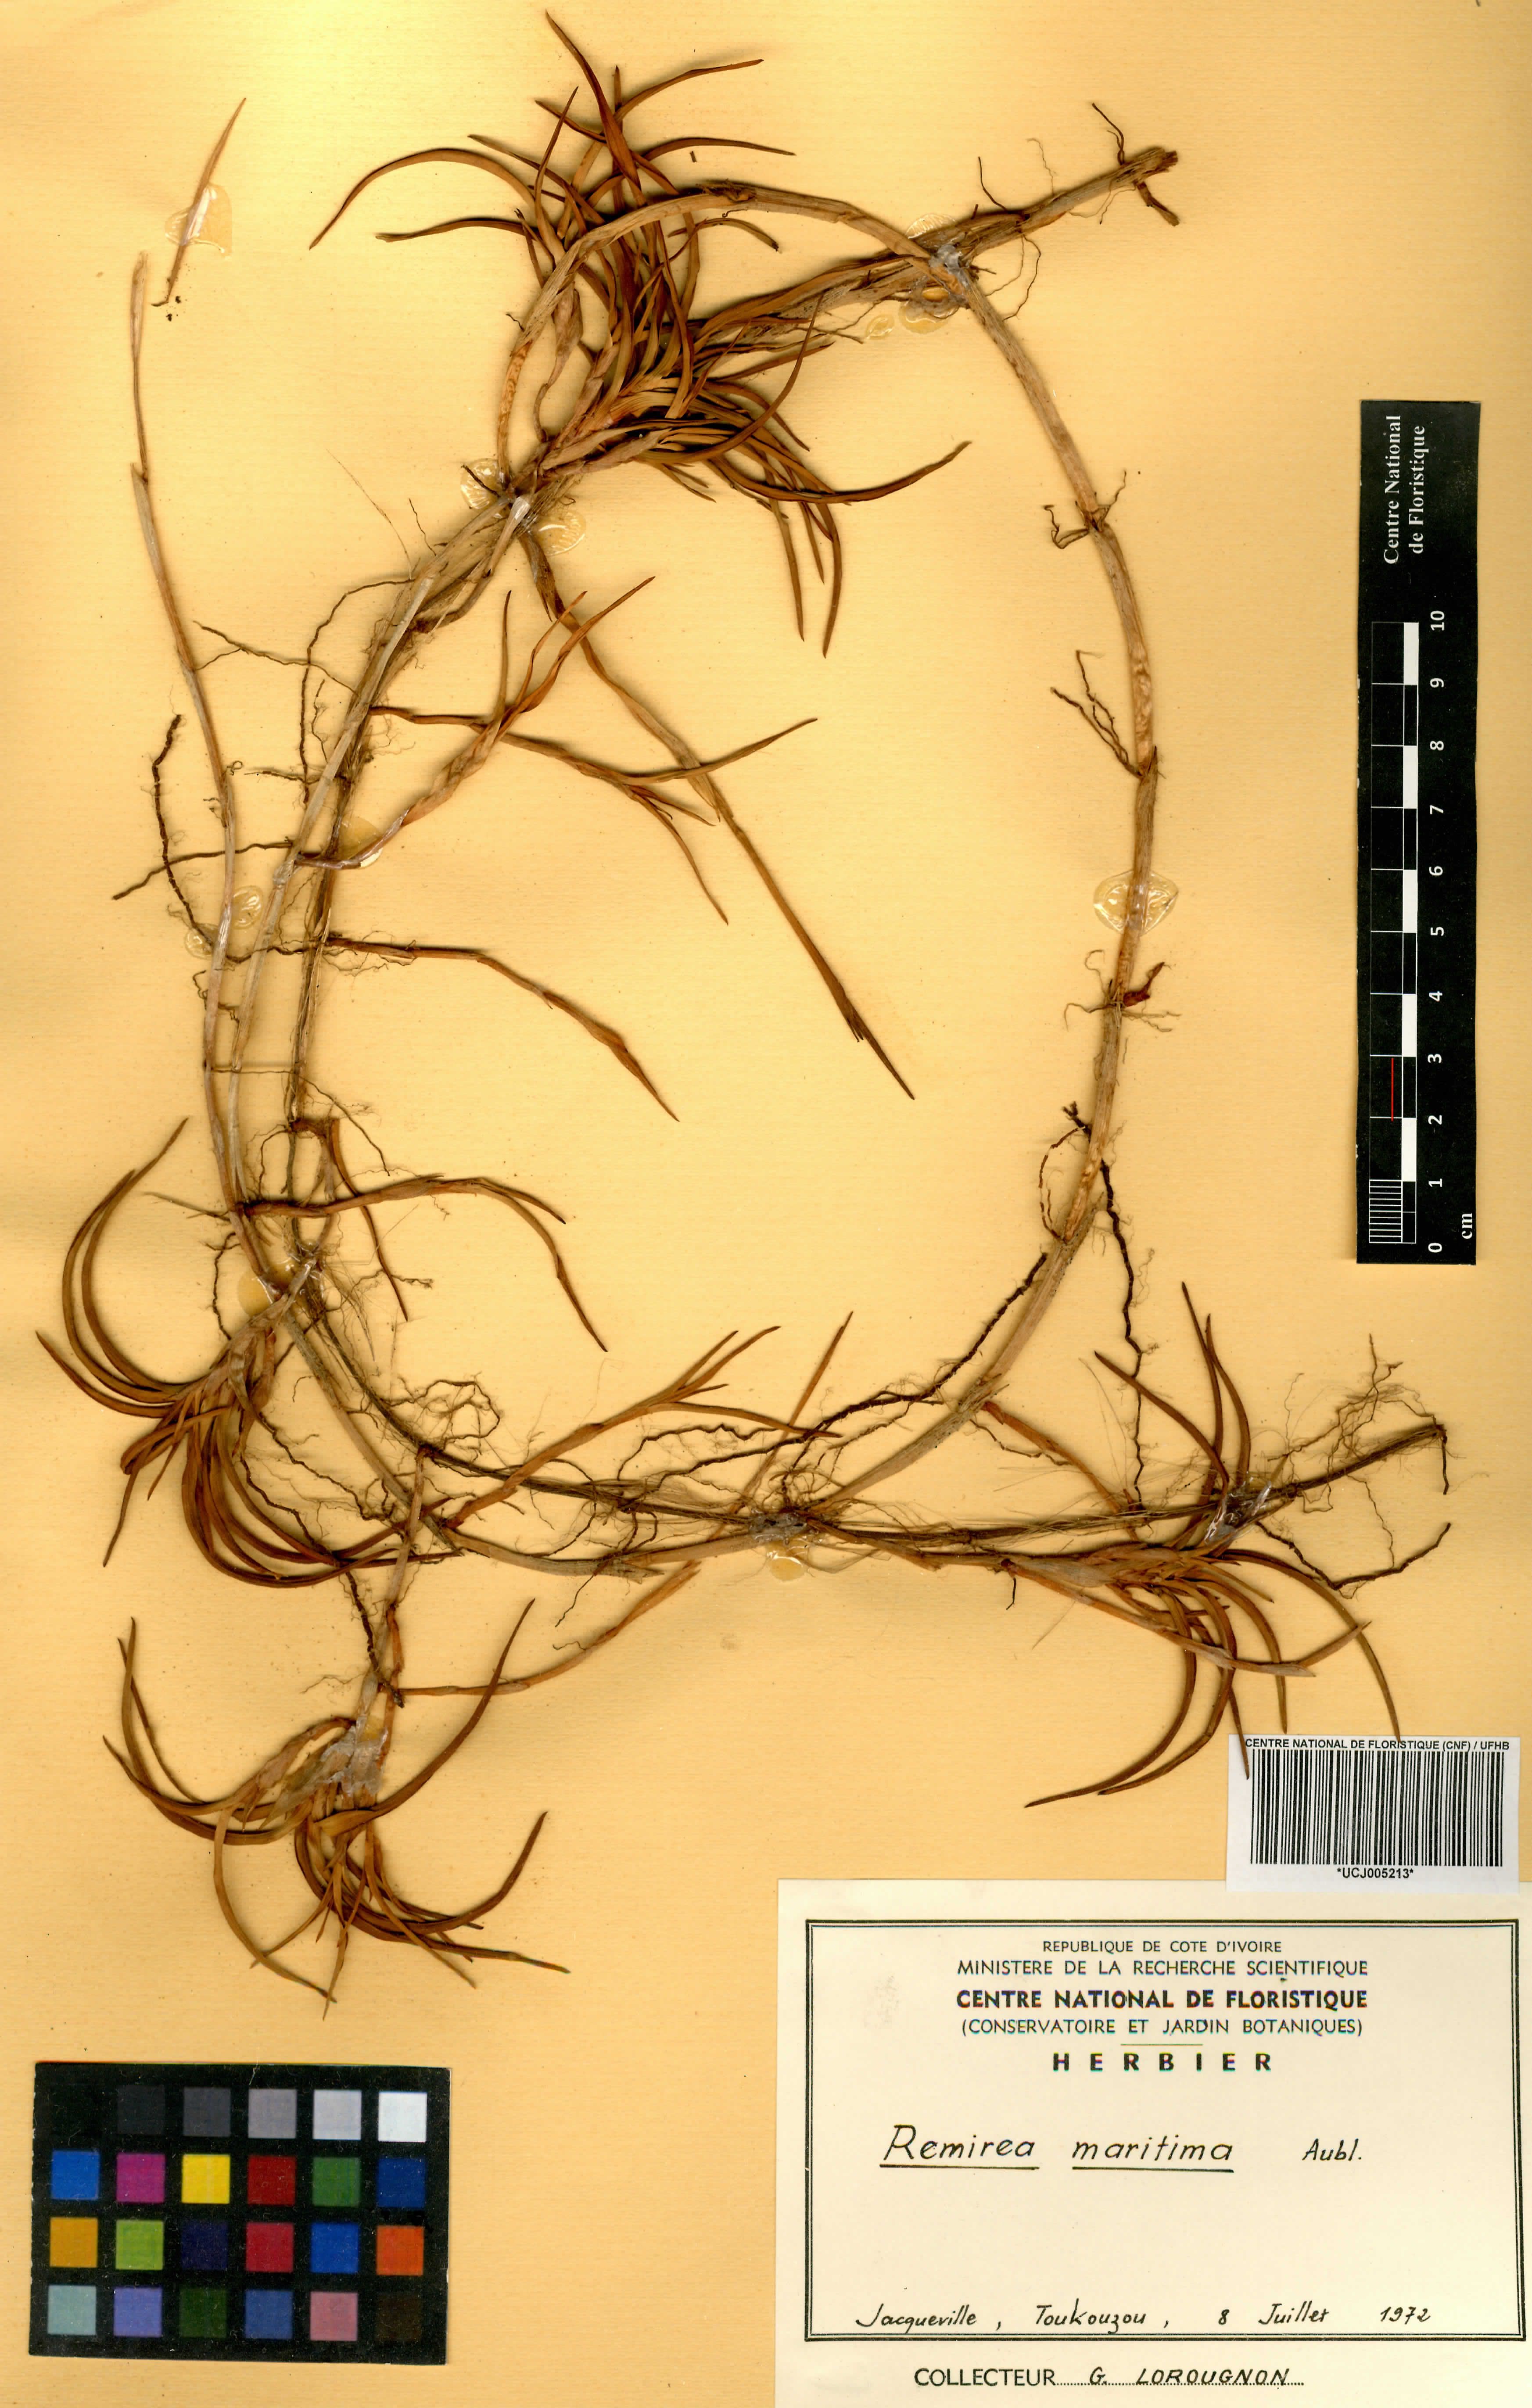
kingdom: Plantae
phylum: Tracheophyta
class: Liliopsida
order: Poales
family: Cyperaceae
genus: Cyperus
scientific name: Cyperus pedunculatus
